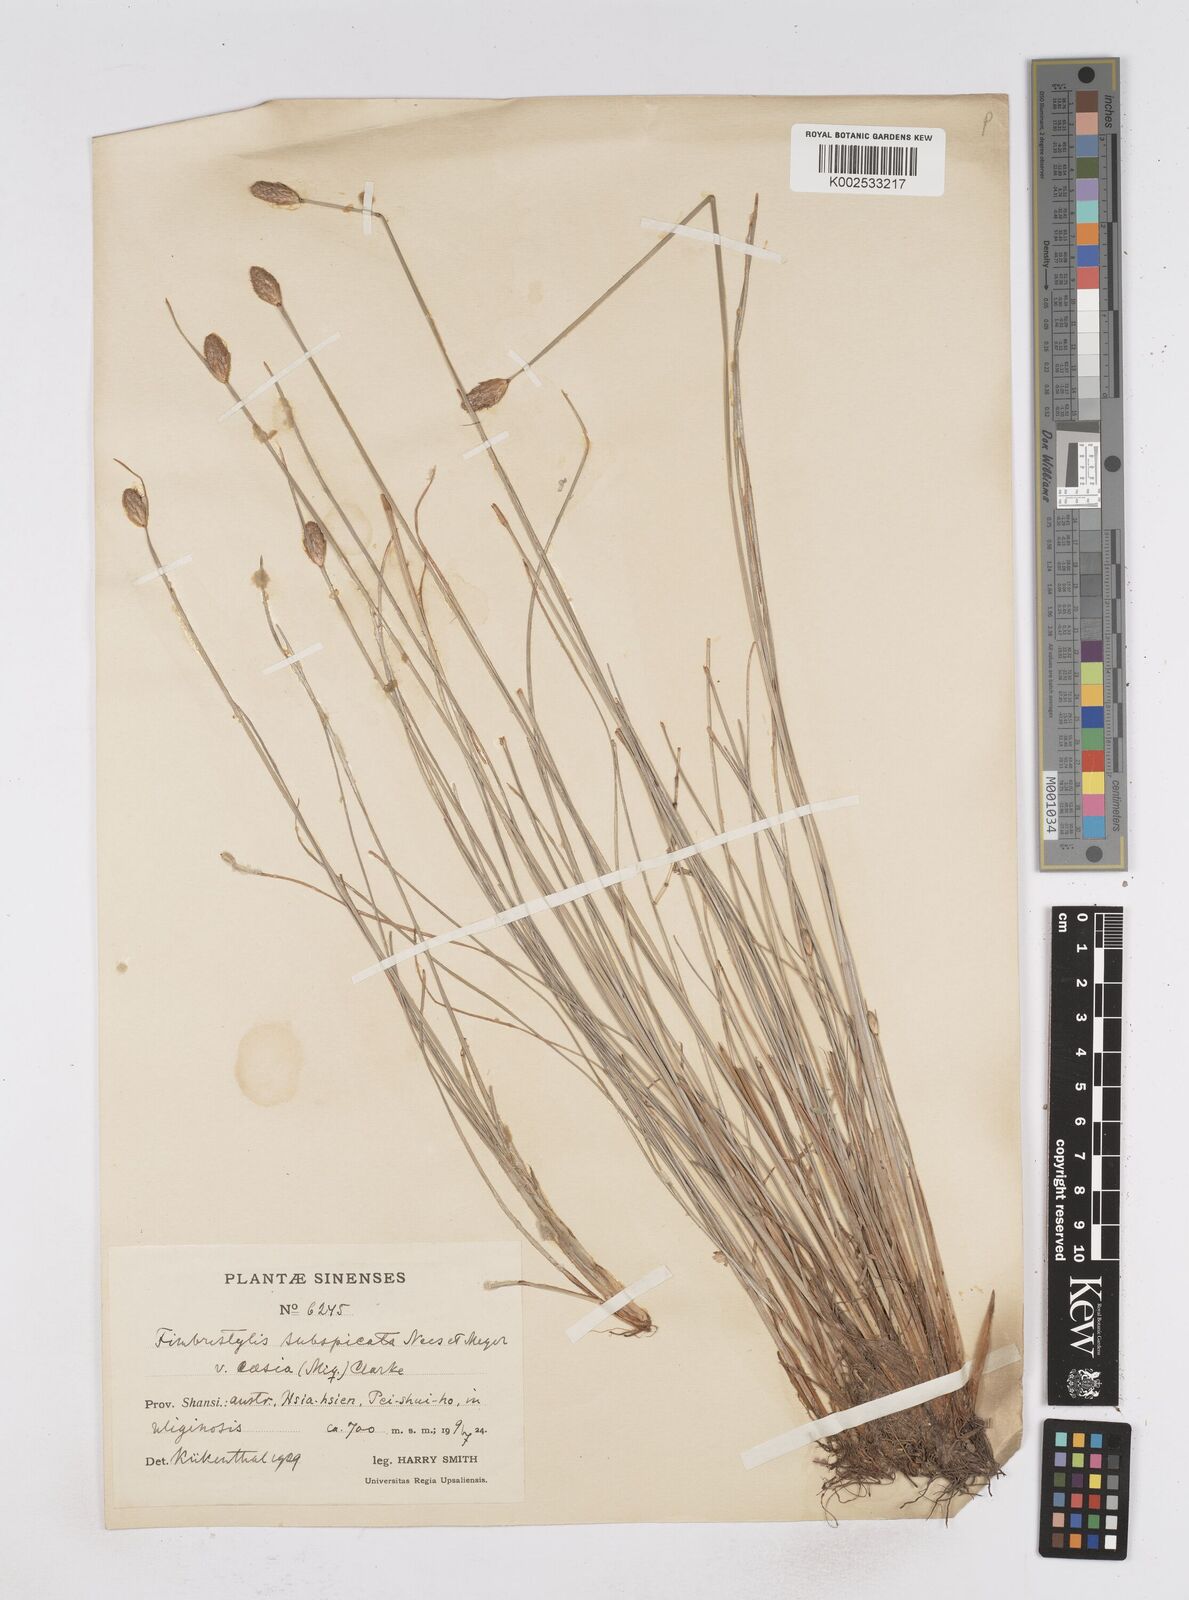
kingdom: Plantae
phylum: Tracheophyta
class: Liliopsida
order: Poales
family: Cyperaceae
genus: Fimbristylis
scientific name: Fimbristylis tristachya
